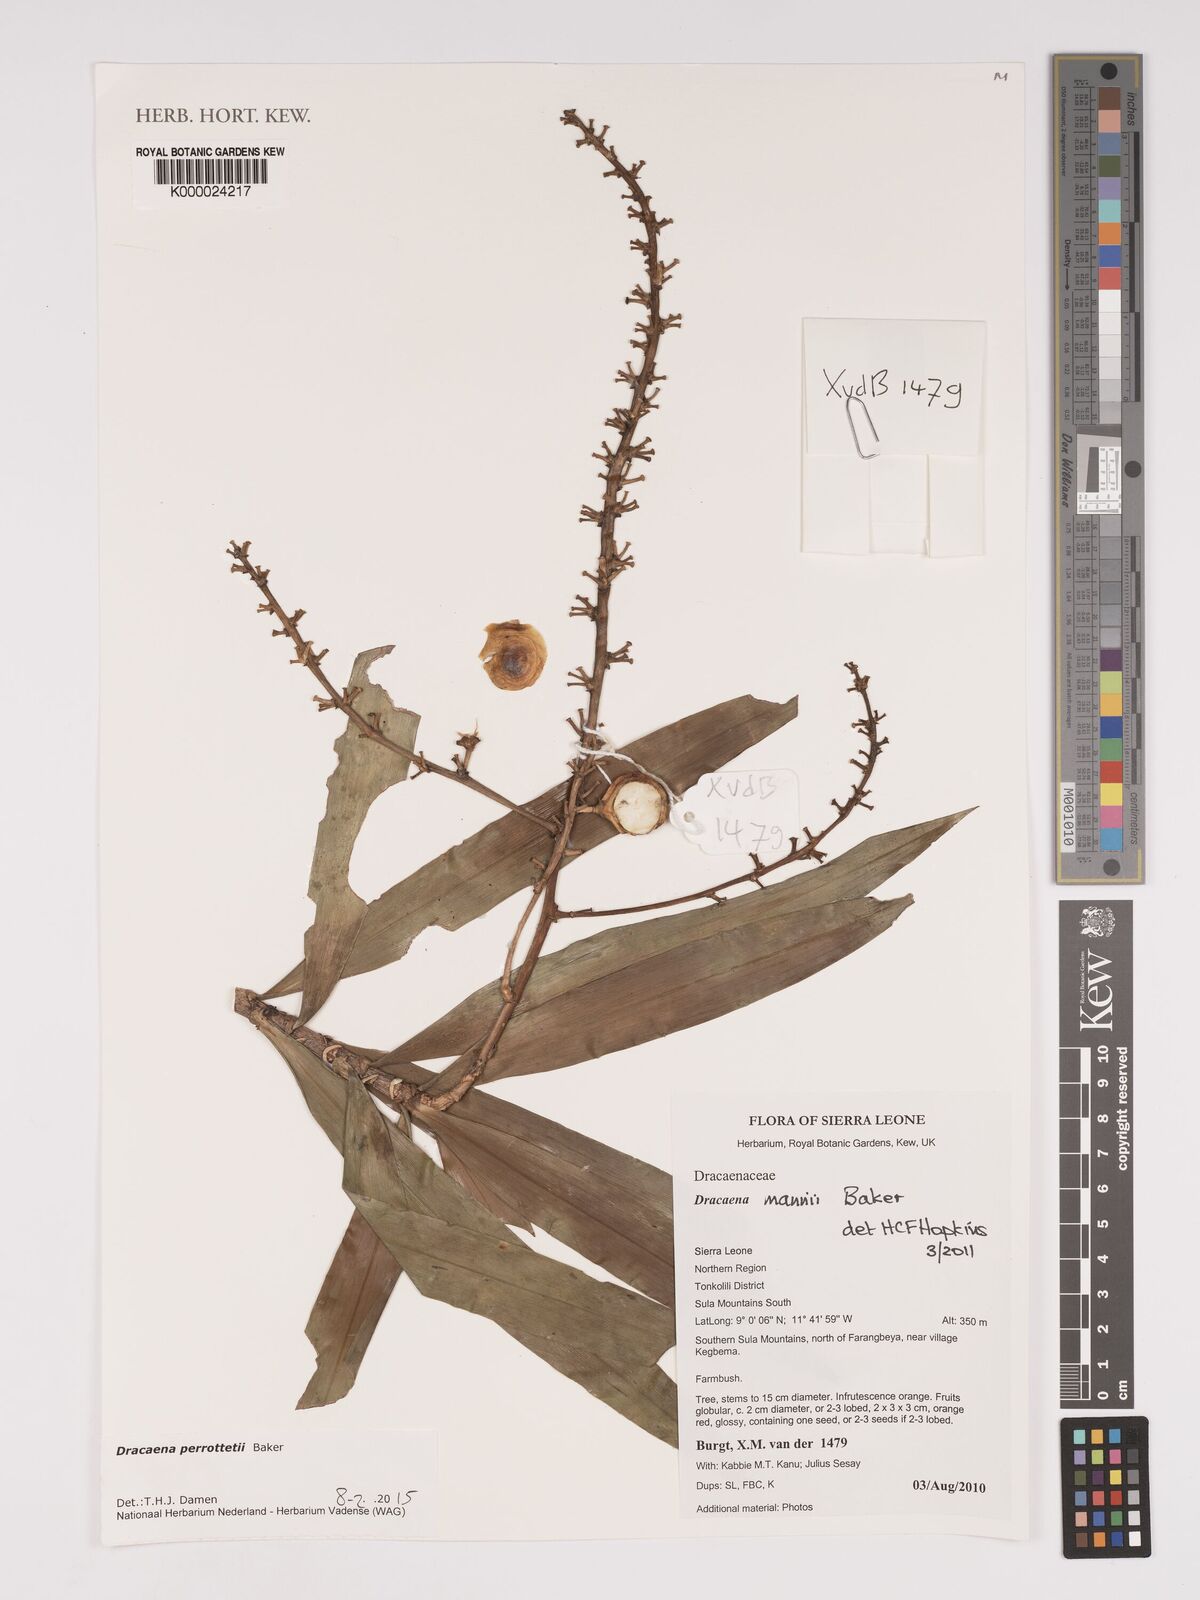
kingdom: Plantae
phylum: Tracheophyta
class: Liliopsida
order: Asparagales
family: Asparagaceae
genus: Dracaena
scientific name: Dracaena perrottetii
